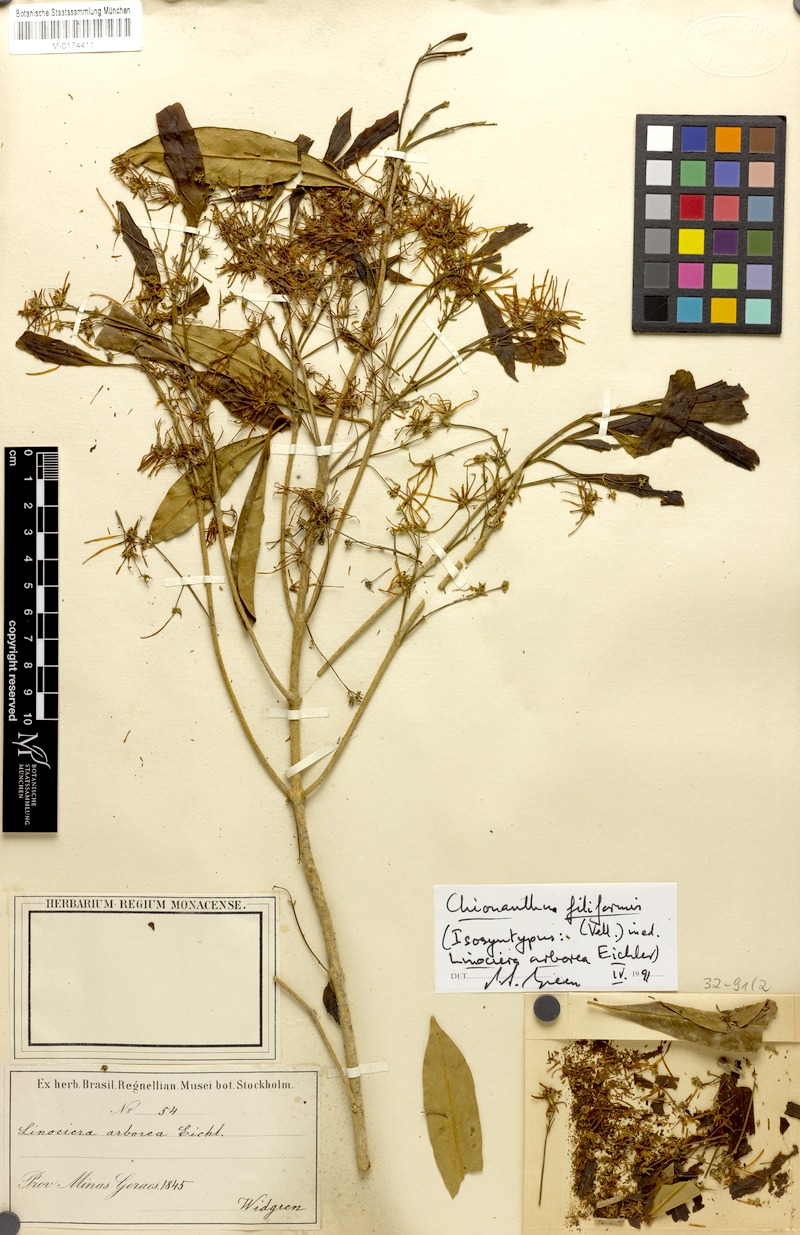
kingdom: Plantae
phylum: Tracheophyta
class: Magnoliopsida
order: Lamiales
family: Oleaceae
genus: Chionanthus
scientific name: Chionanthus trichotomus
